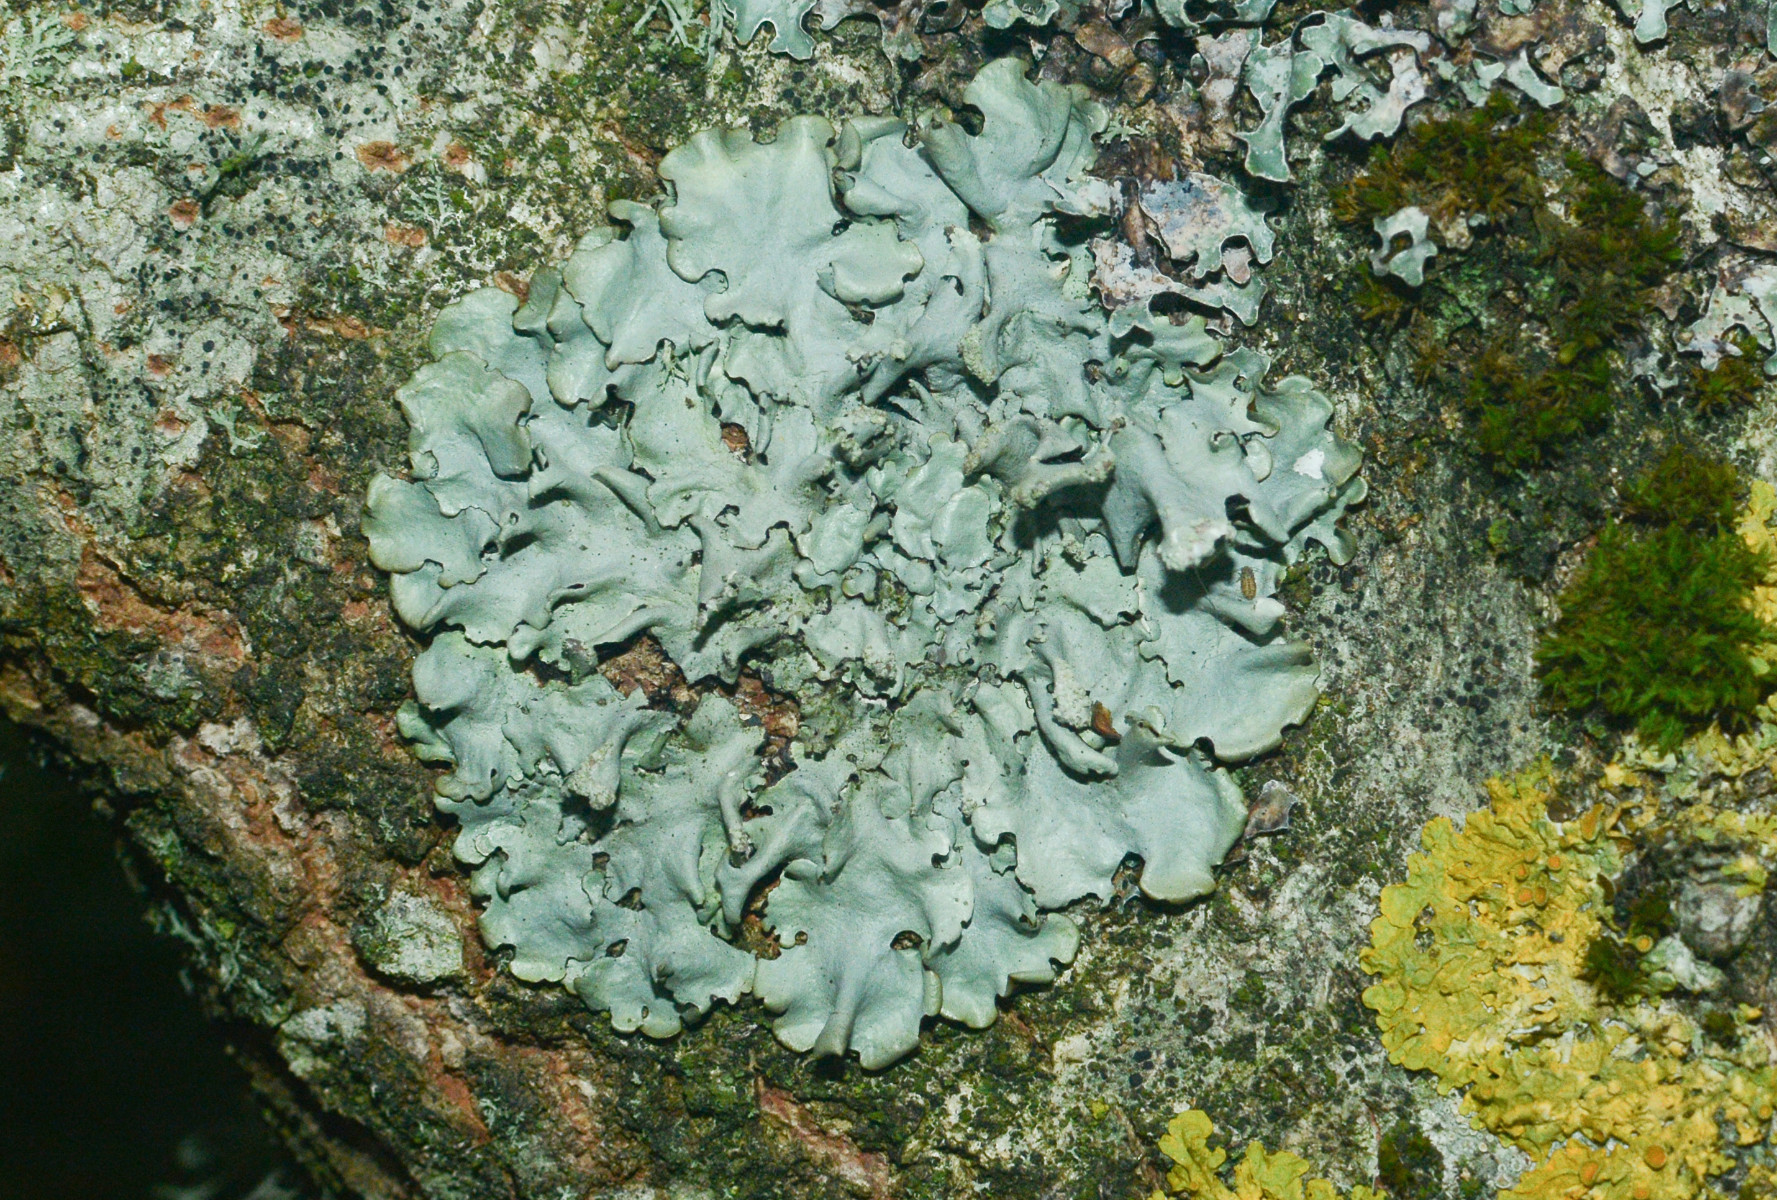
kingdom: Fungi
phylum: Ascomycota
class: Lecanoromycetes
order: Lecanorales
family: Parmeliaceae
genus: Hypotrachyna
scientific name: Hypotrachyna afrorevoluta
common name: kyst-skållav
